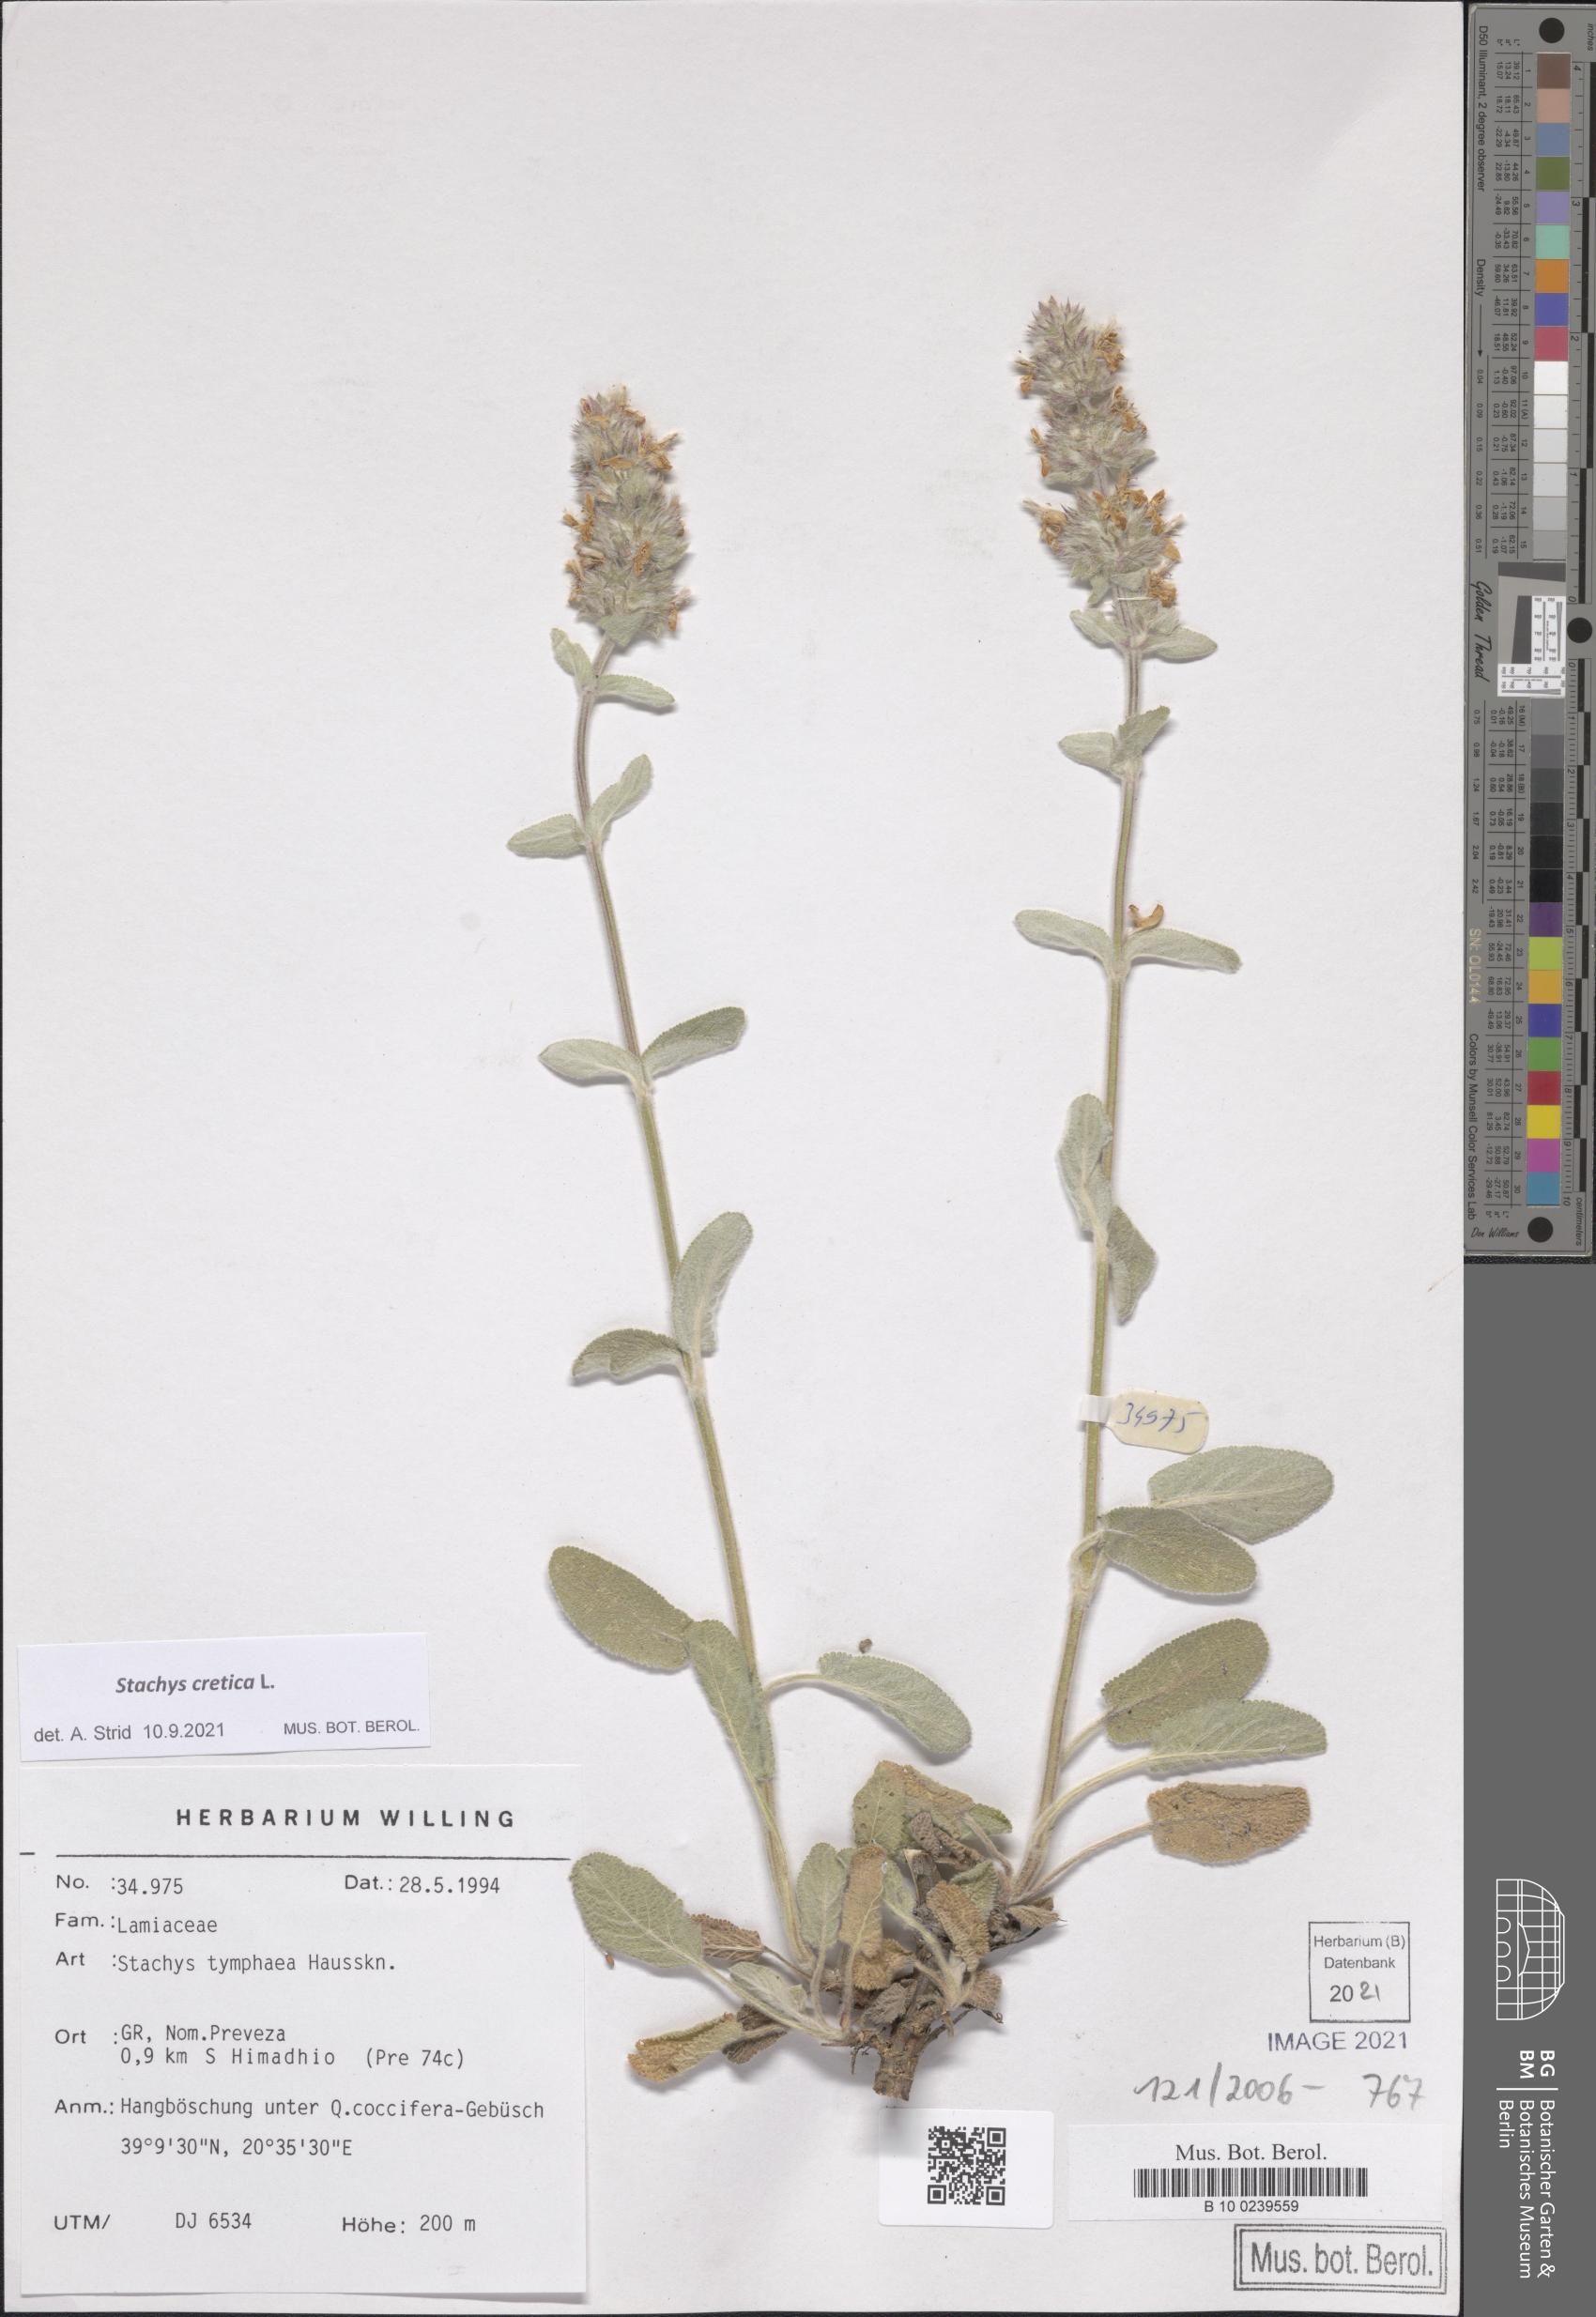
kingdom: Plantae
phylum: Tracheophyta
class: Magnoliopsida
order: Lamiales
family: Lamiaceae
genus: Stachys
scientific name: Stachys cretica
